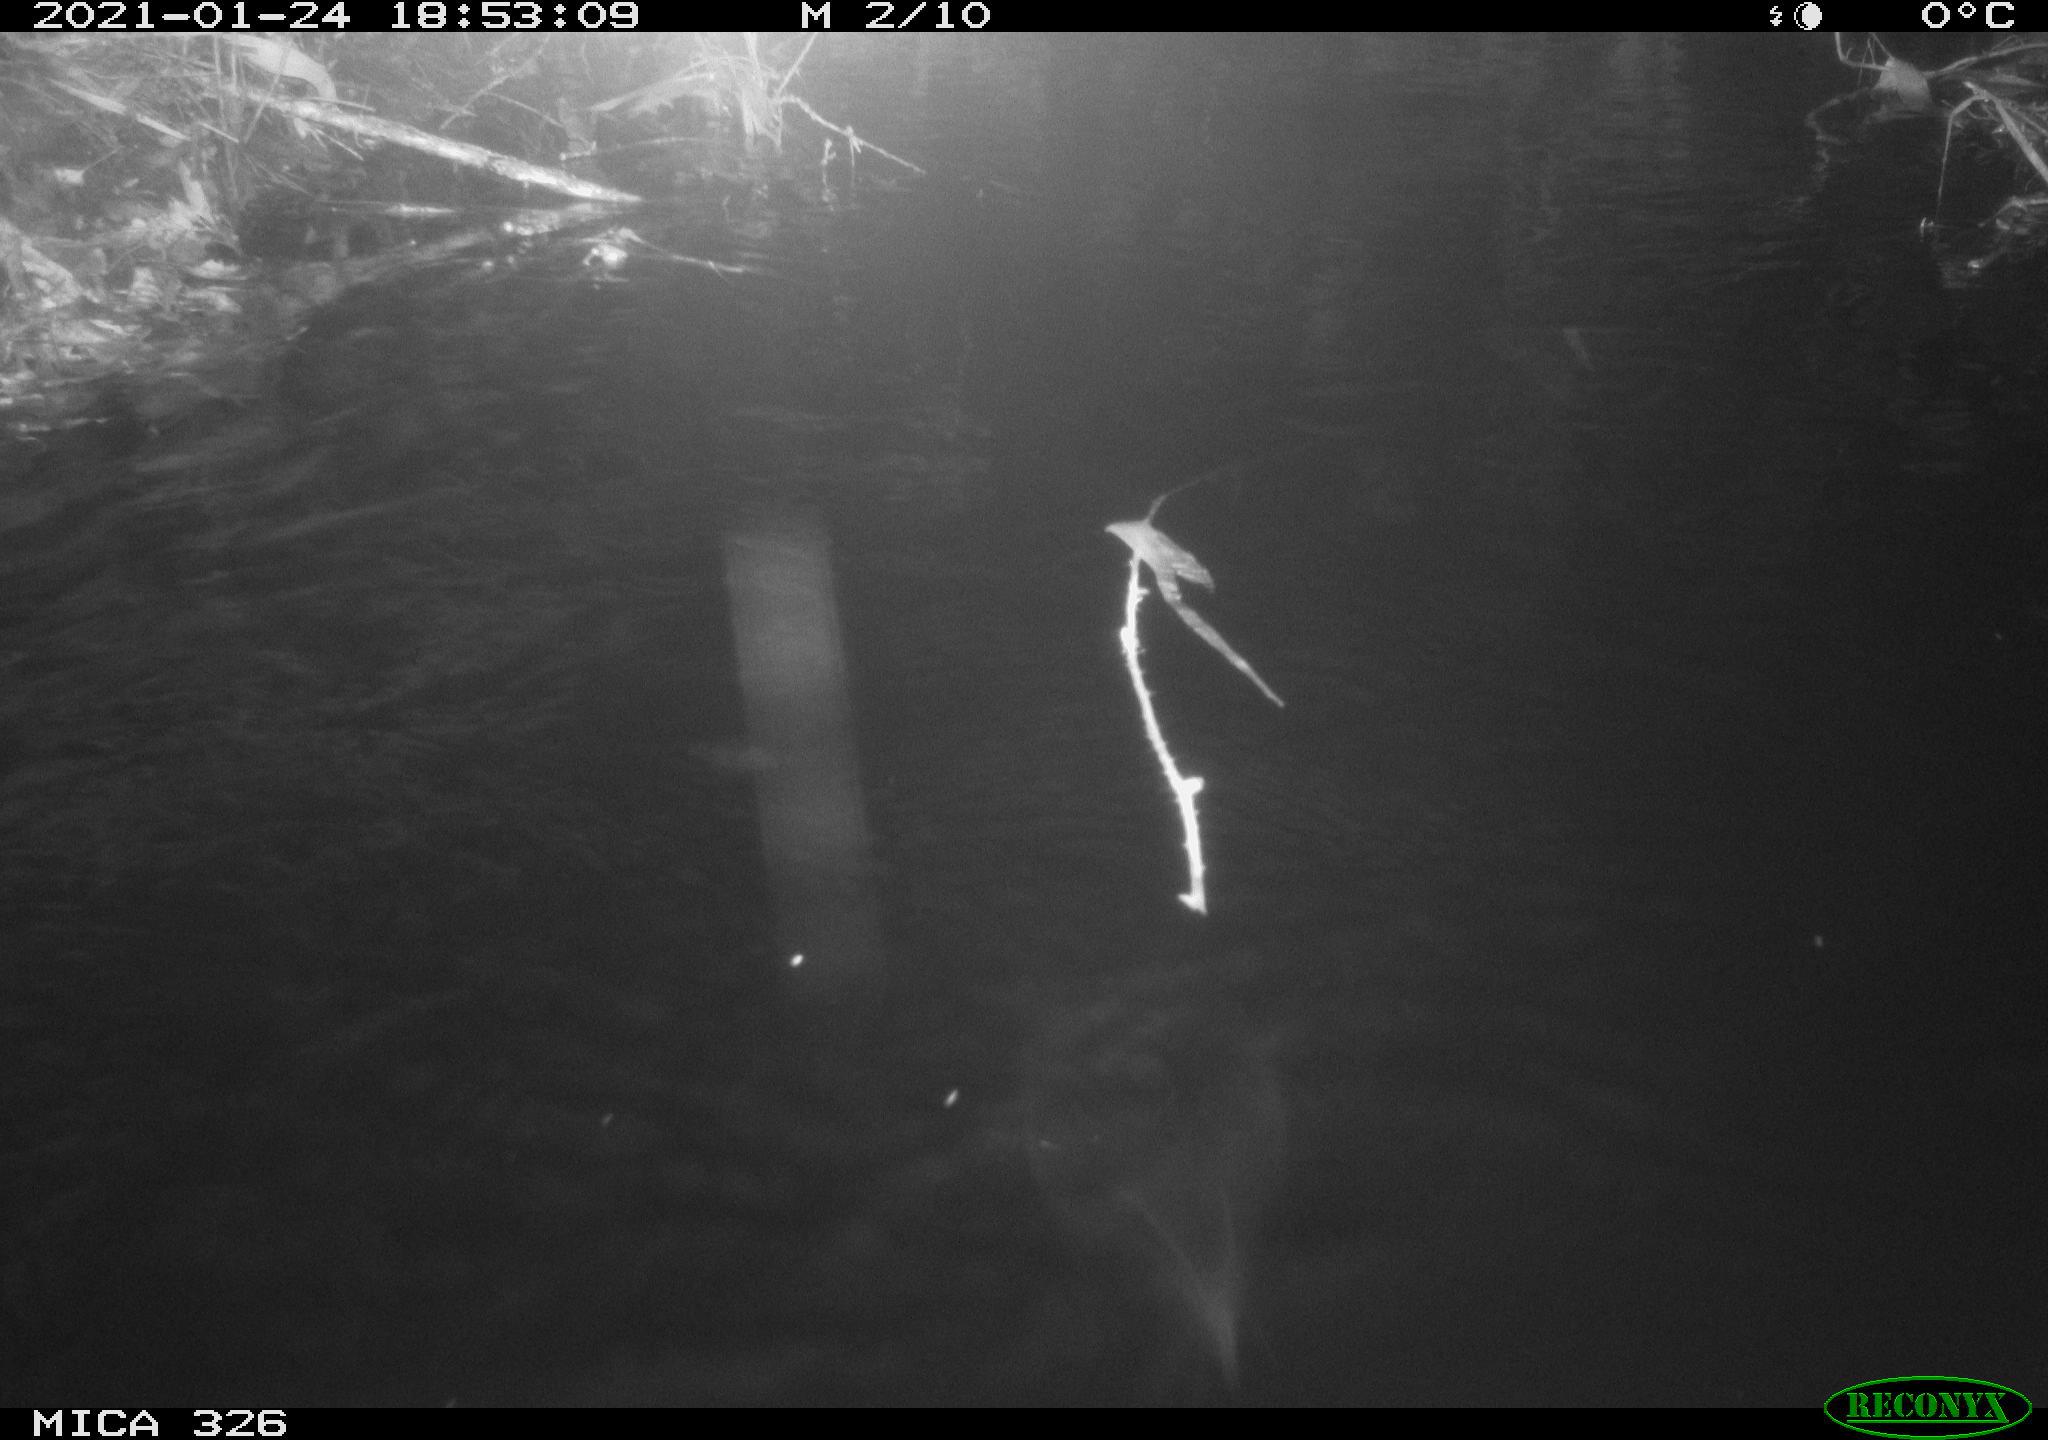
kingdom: Animalia
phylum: Chordata
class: Mammalia
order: Rodentia
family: Cricetidae
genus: Ondatra
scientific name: Ondatra zibethicus
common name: Muskrat
